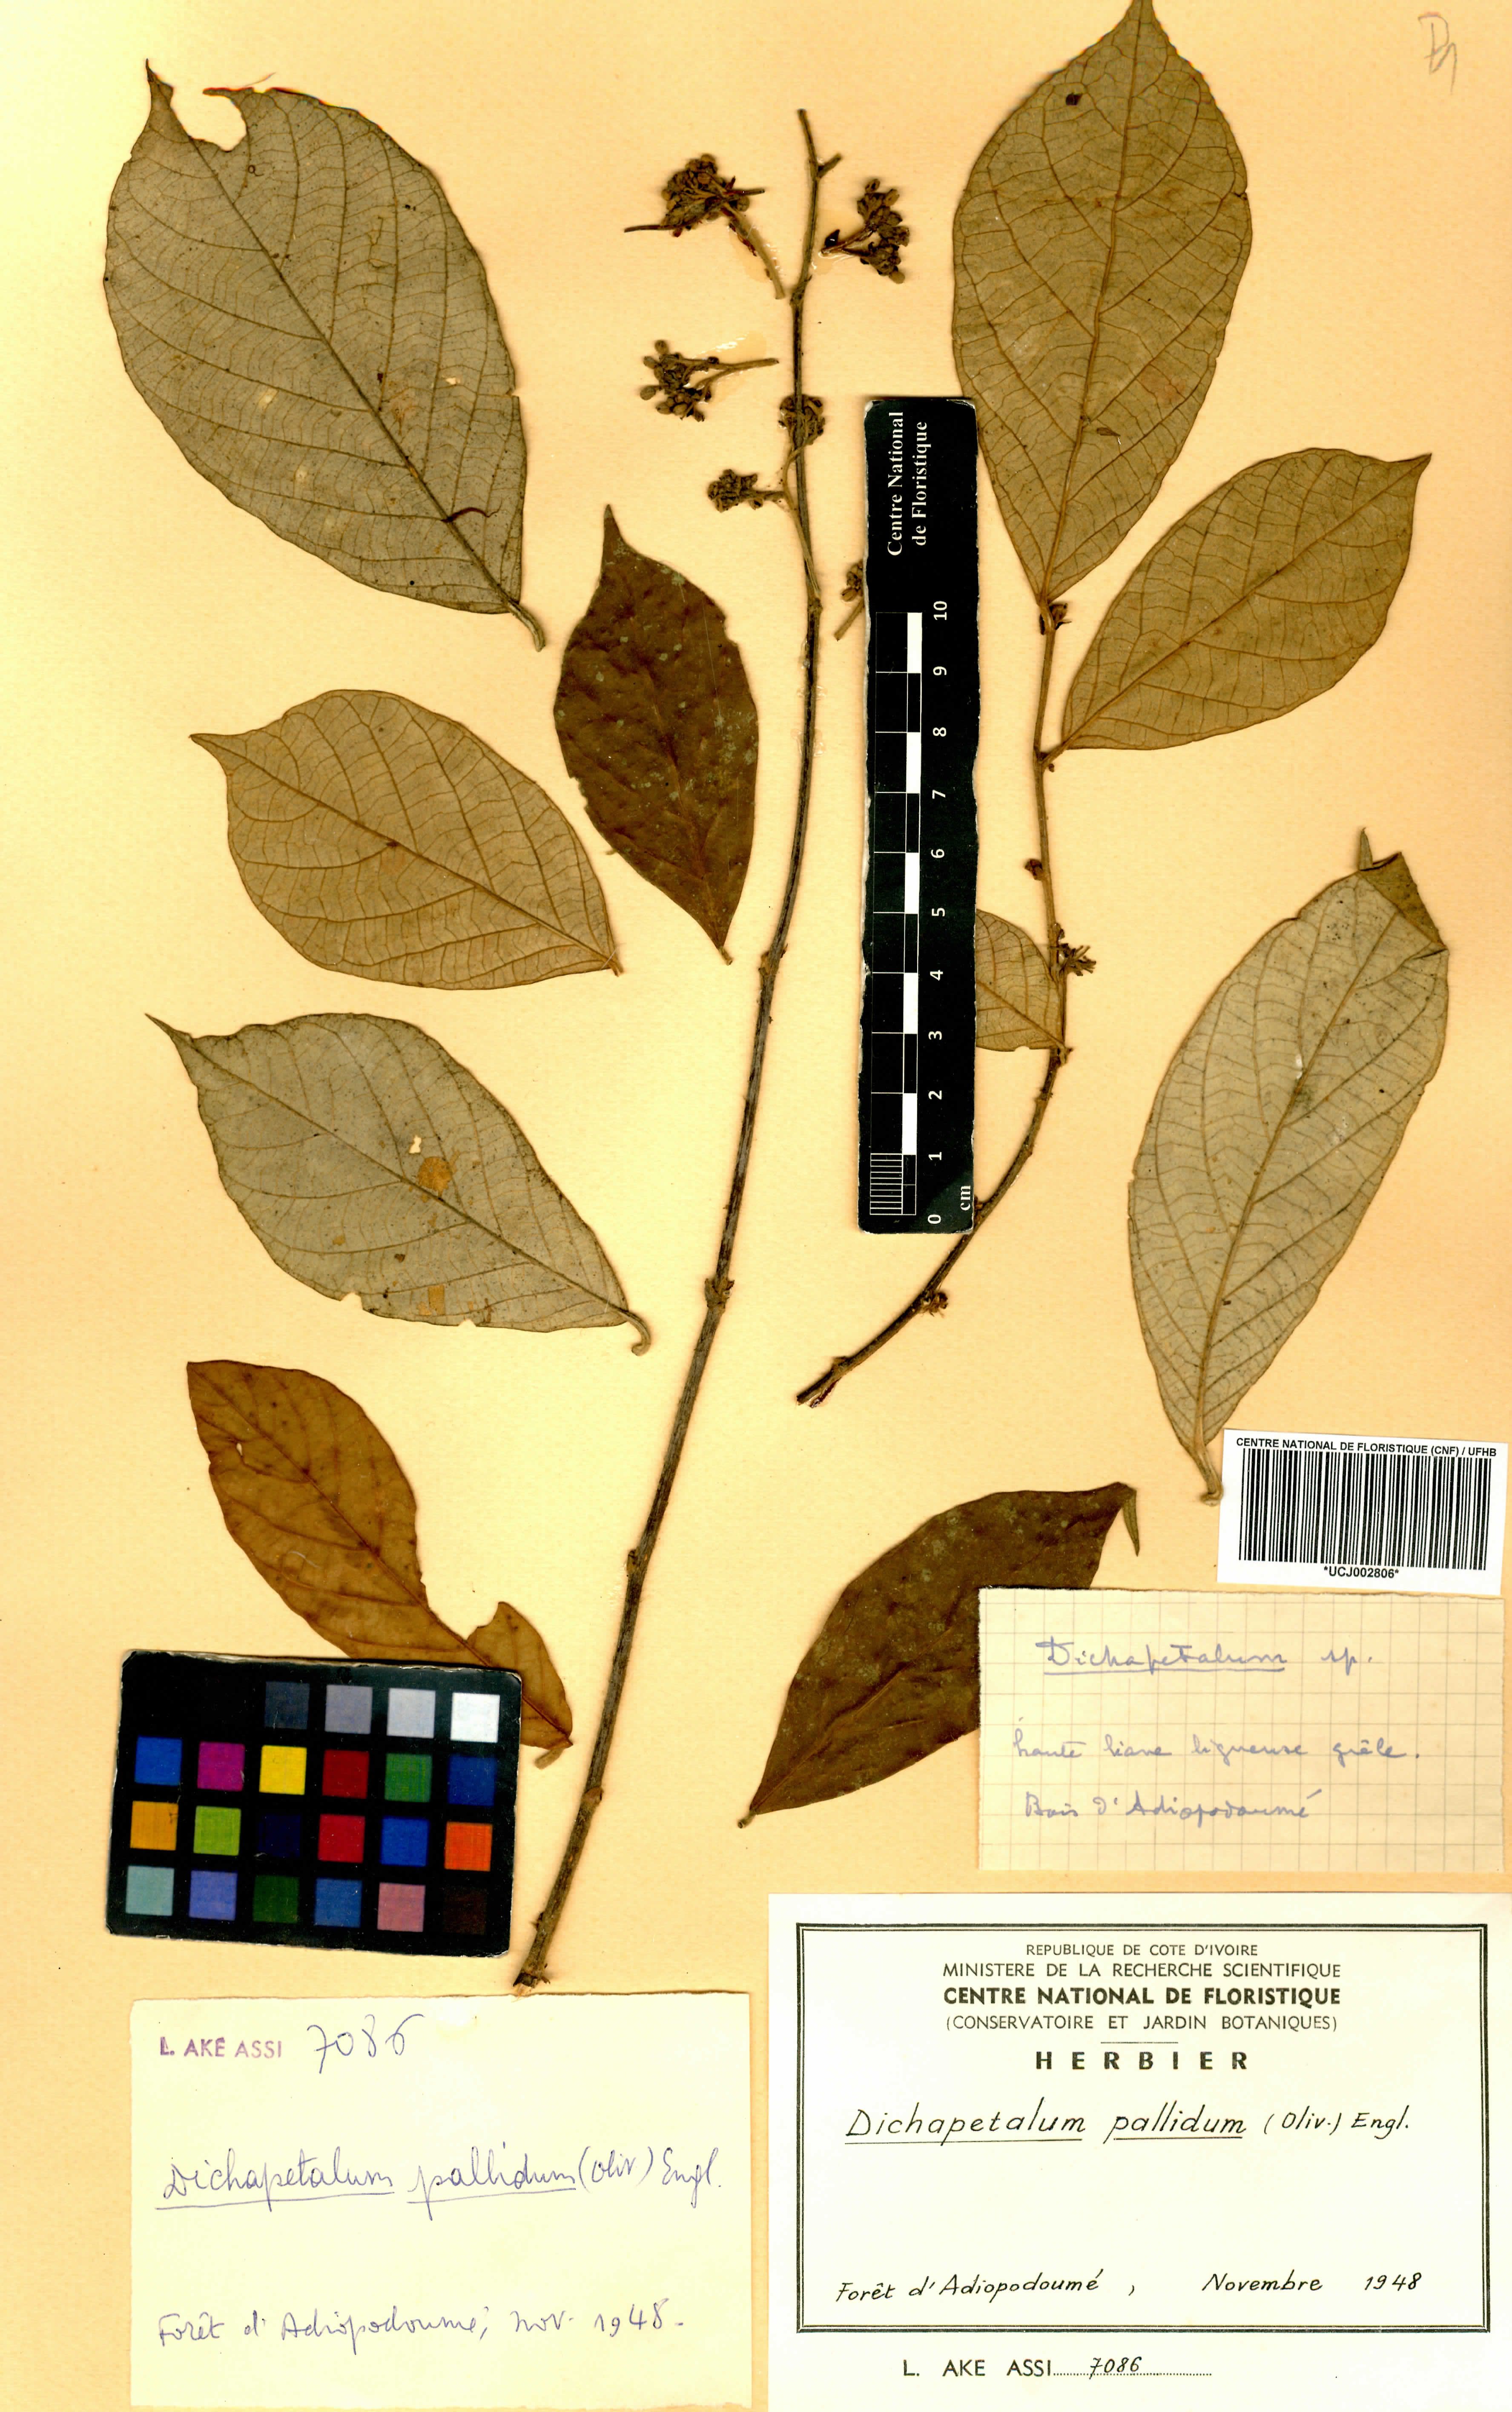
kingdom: Plantae
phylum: Tracheophyta
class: Magnoliopsida
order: Malpighiales
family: Dichapetalaceae
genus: Dichapetalum
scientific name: Dichapetalum pallidum
